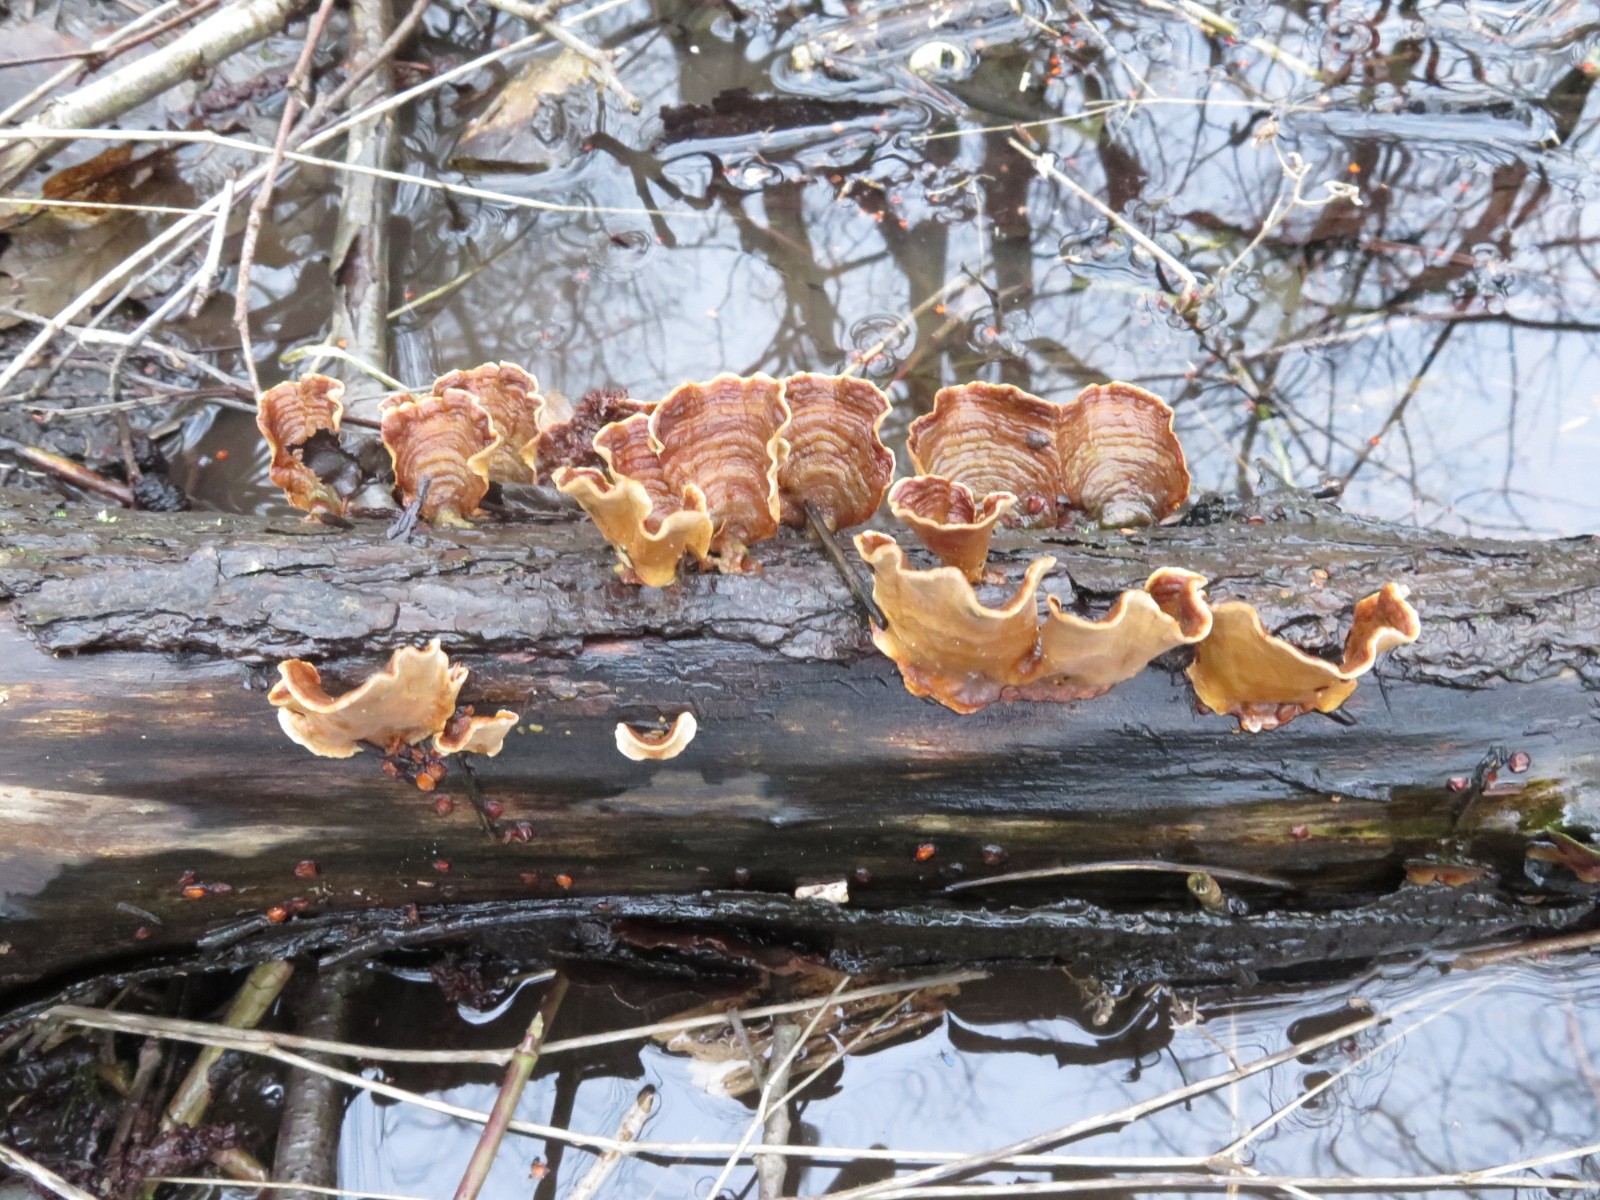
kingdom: Fungi
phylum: Basidiomycota
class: Agaricomycetes
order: Russulales
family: Stereaceae
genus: Stereum
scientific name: Stereum subtomentosum
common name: smuk lædersvamp
